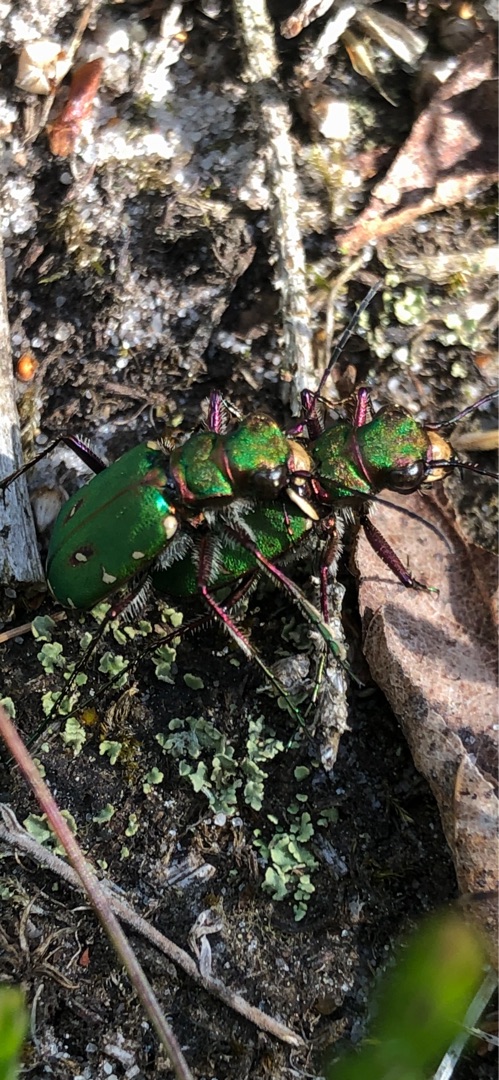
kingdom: Animalia
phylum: Arthropoda
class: Insecta
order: Coleoptera
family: Carabidae
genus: Cicindela
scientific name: Cicindela campestris
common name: Grøn sandspringer
